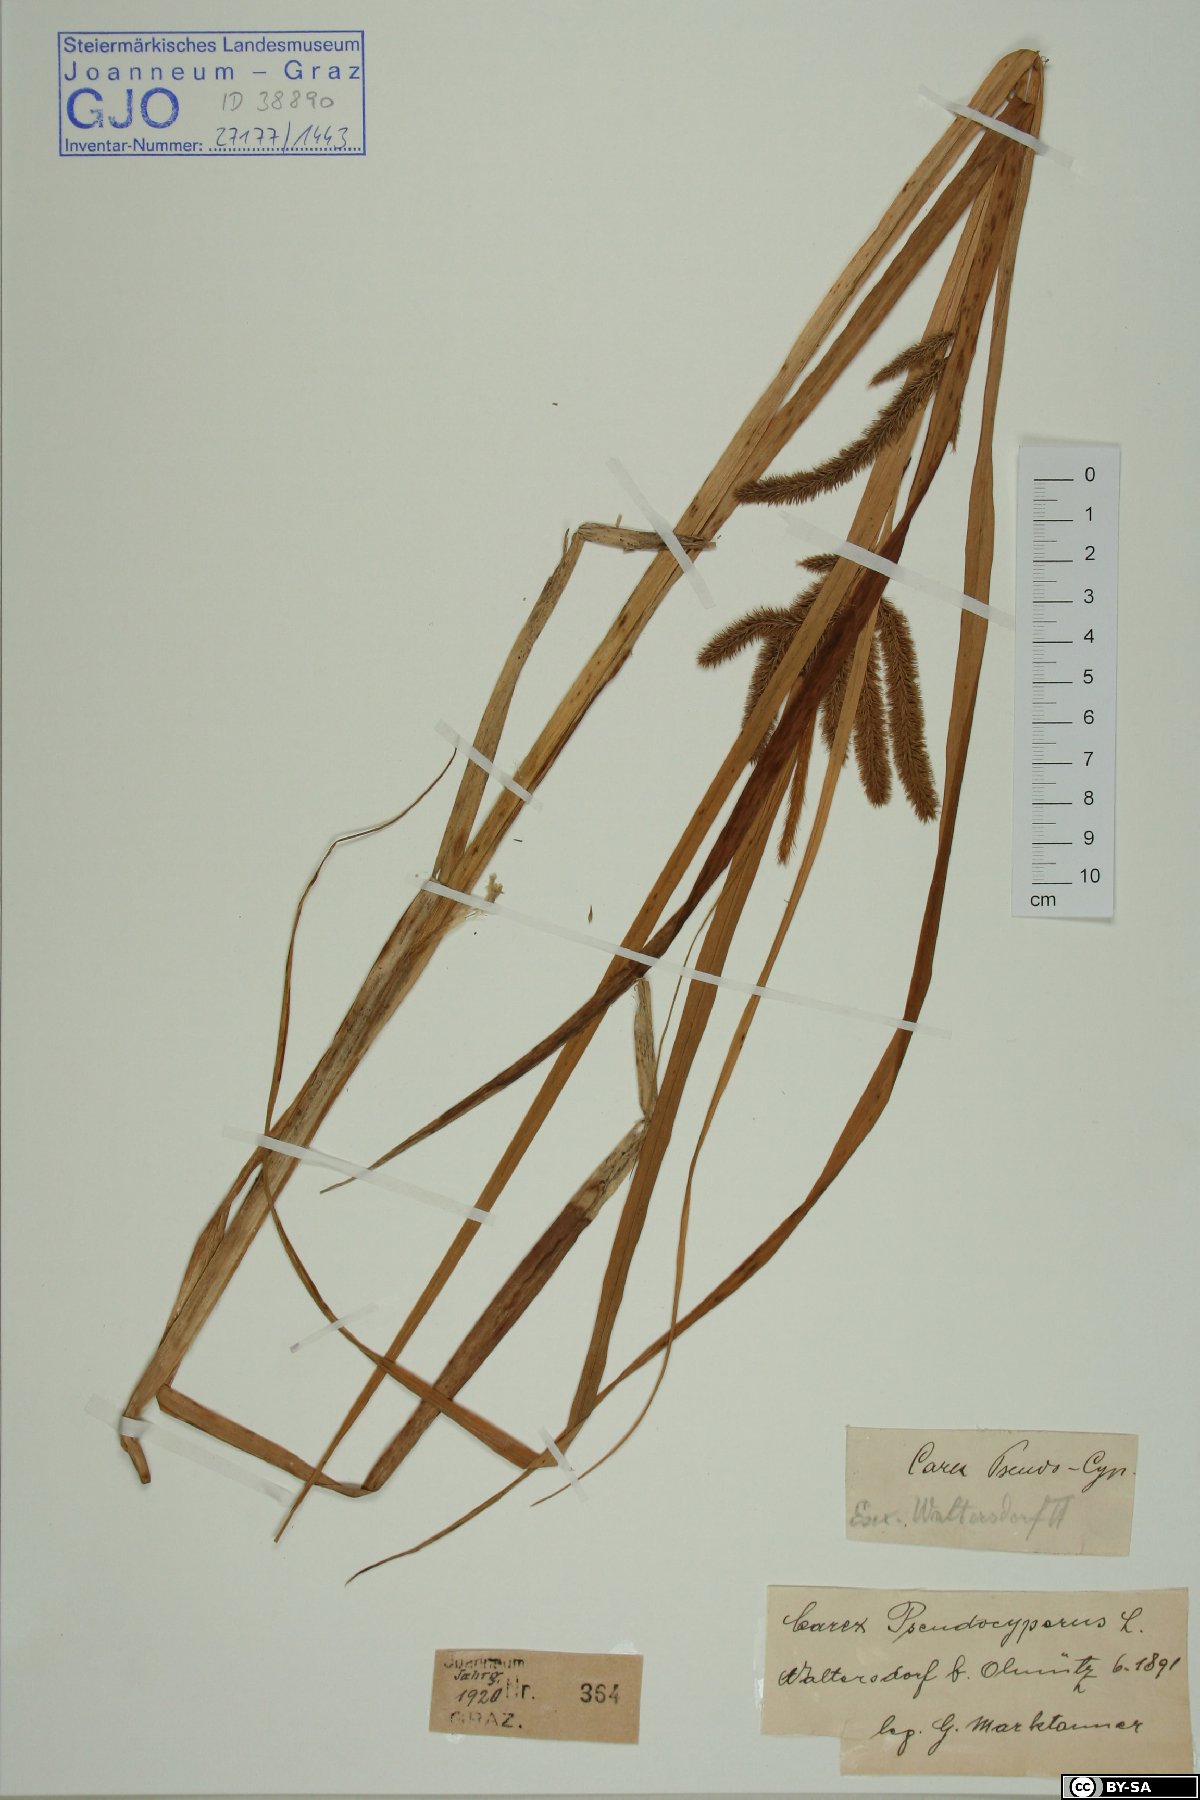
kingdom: Plantae
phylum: Tracheophyta
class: Liliopsida
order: Poales
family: Cyperaceae
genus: Carex
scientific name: Carex pseudocyperus
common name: Cyperus sedge
